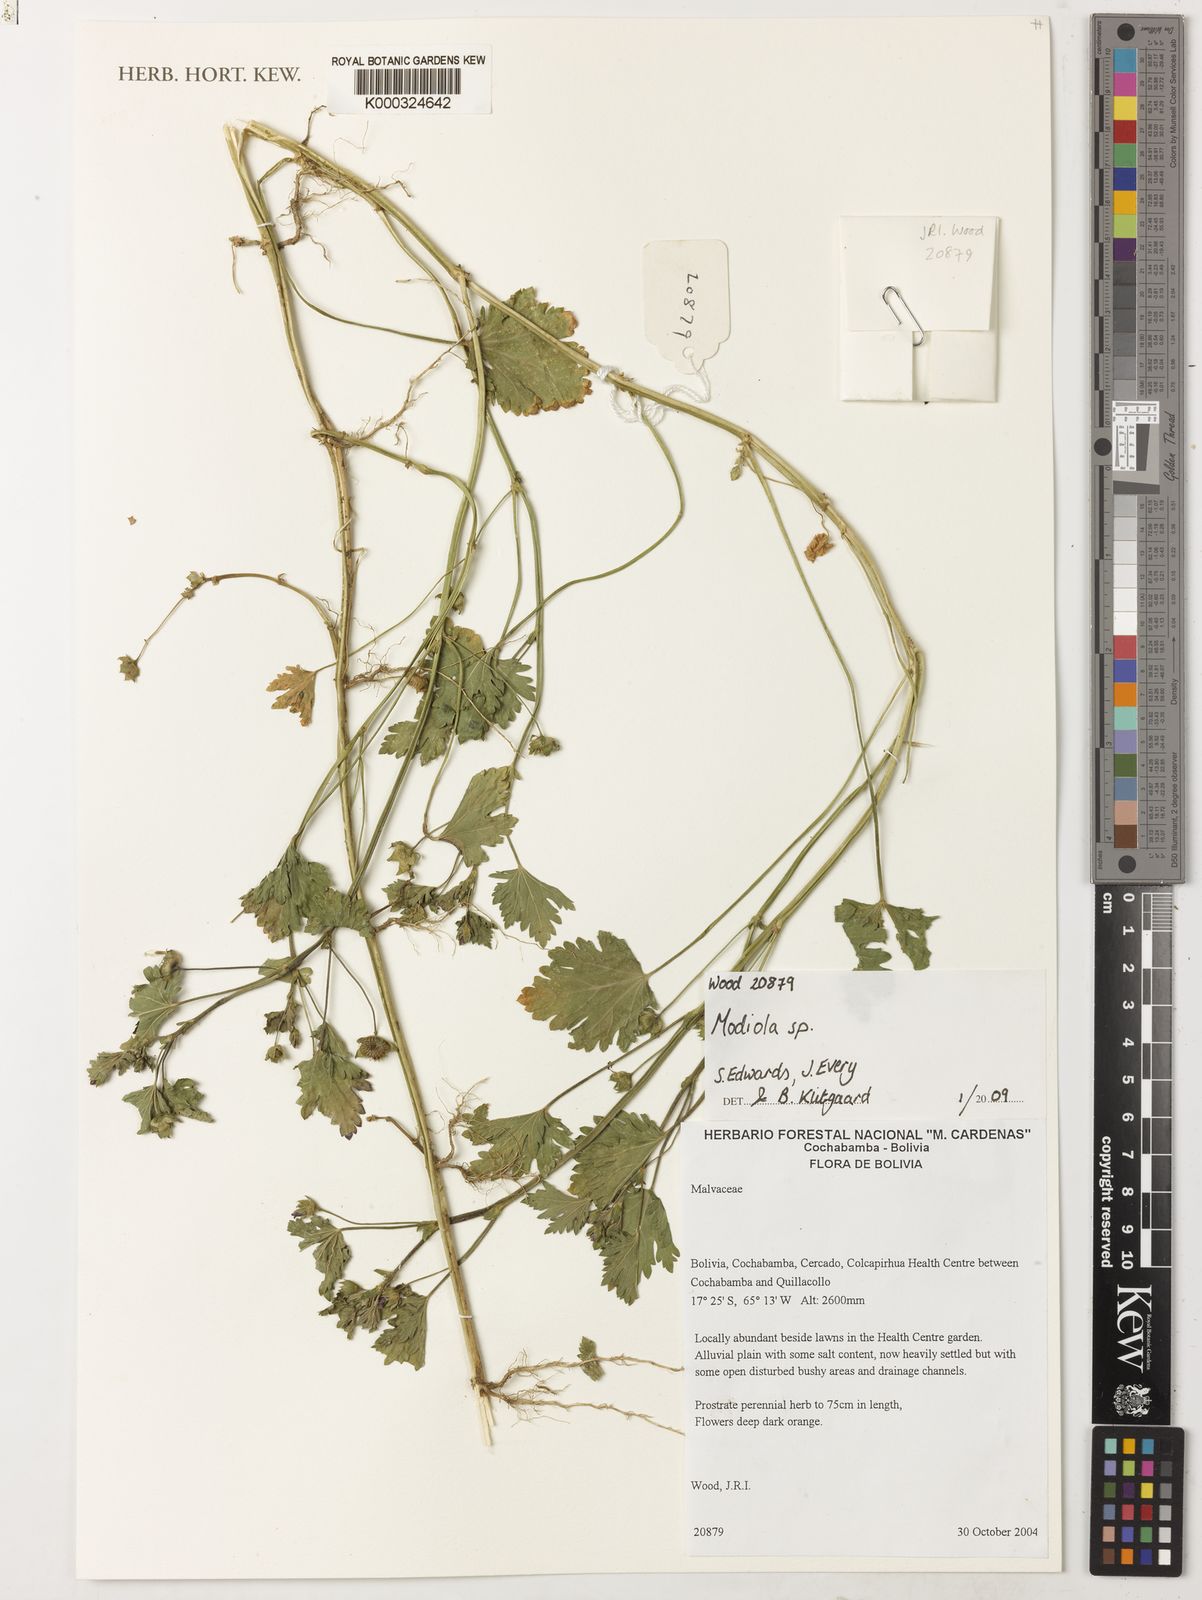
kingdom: Plantae
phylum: Tracheophyta
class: Magnoliopsida
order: Malvales
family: Malvaceae
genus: Modiola
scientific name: Modiola
